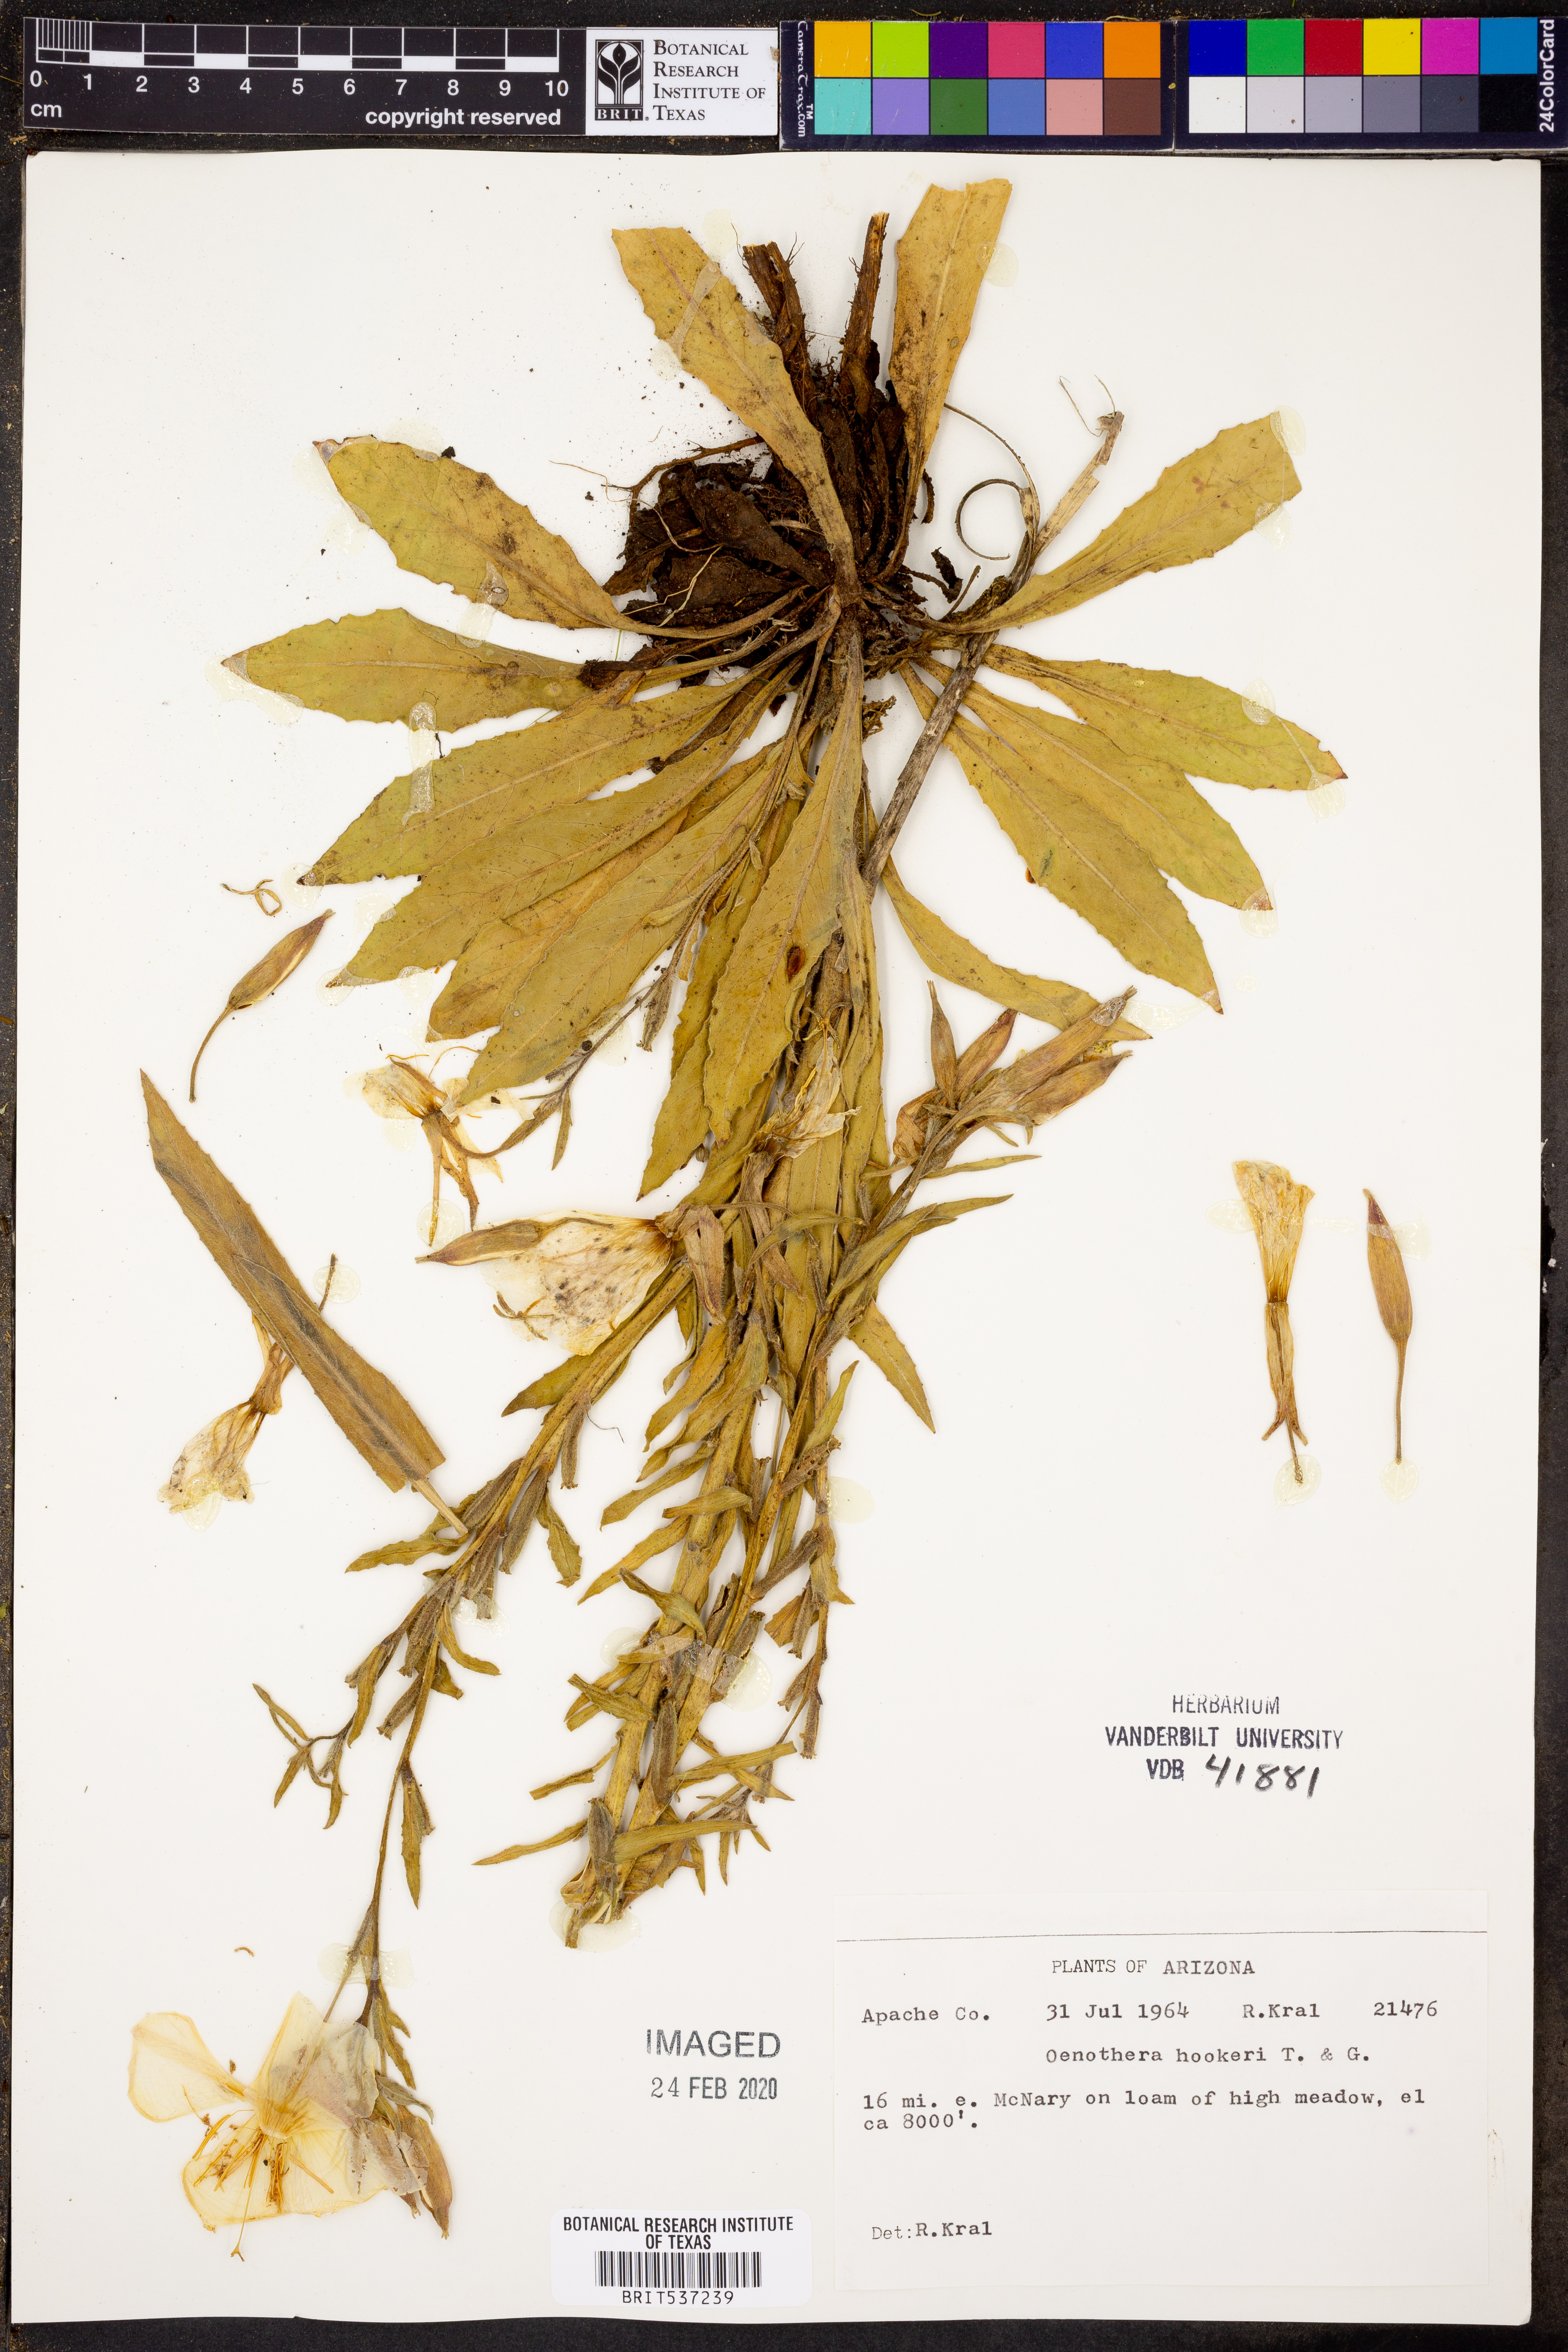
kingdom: Plantae
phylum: Tracheophyta
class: Magnoliopsida
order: Myrtales
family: Onagraceae
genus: Oenothera
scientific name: Oenothera elata
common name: Hooker's evening-primrose
